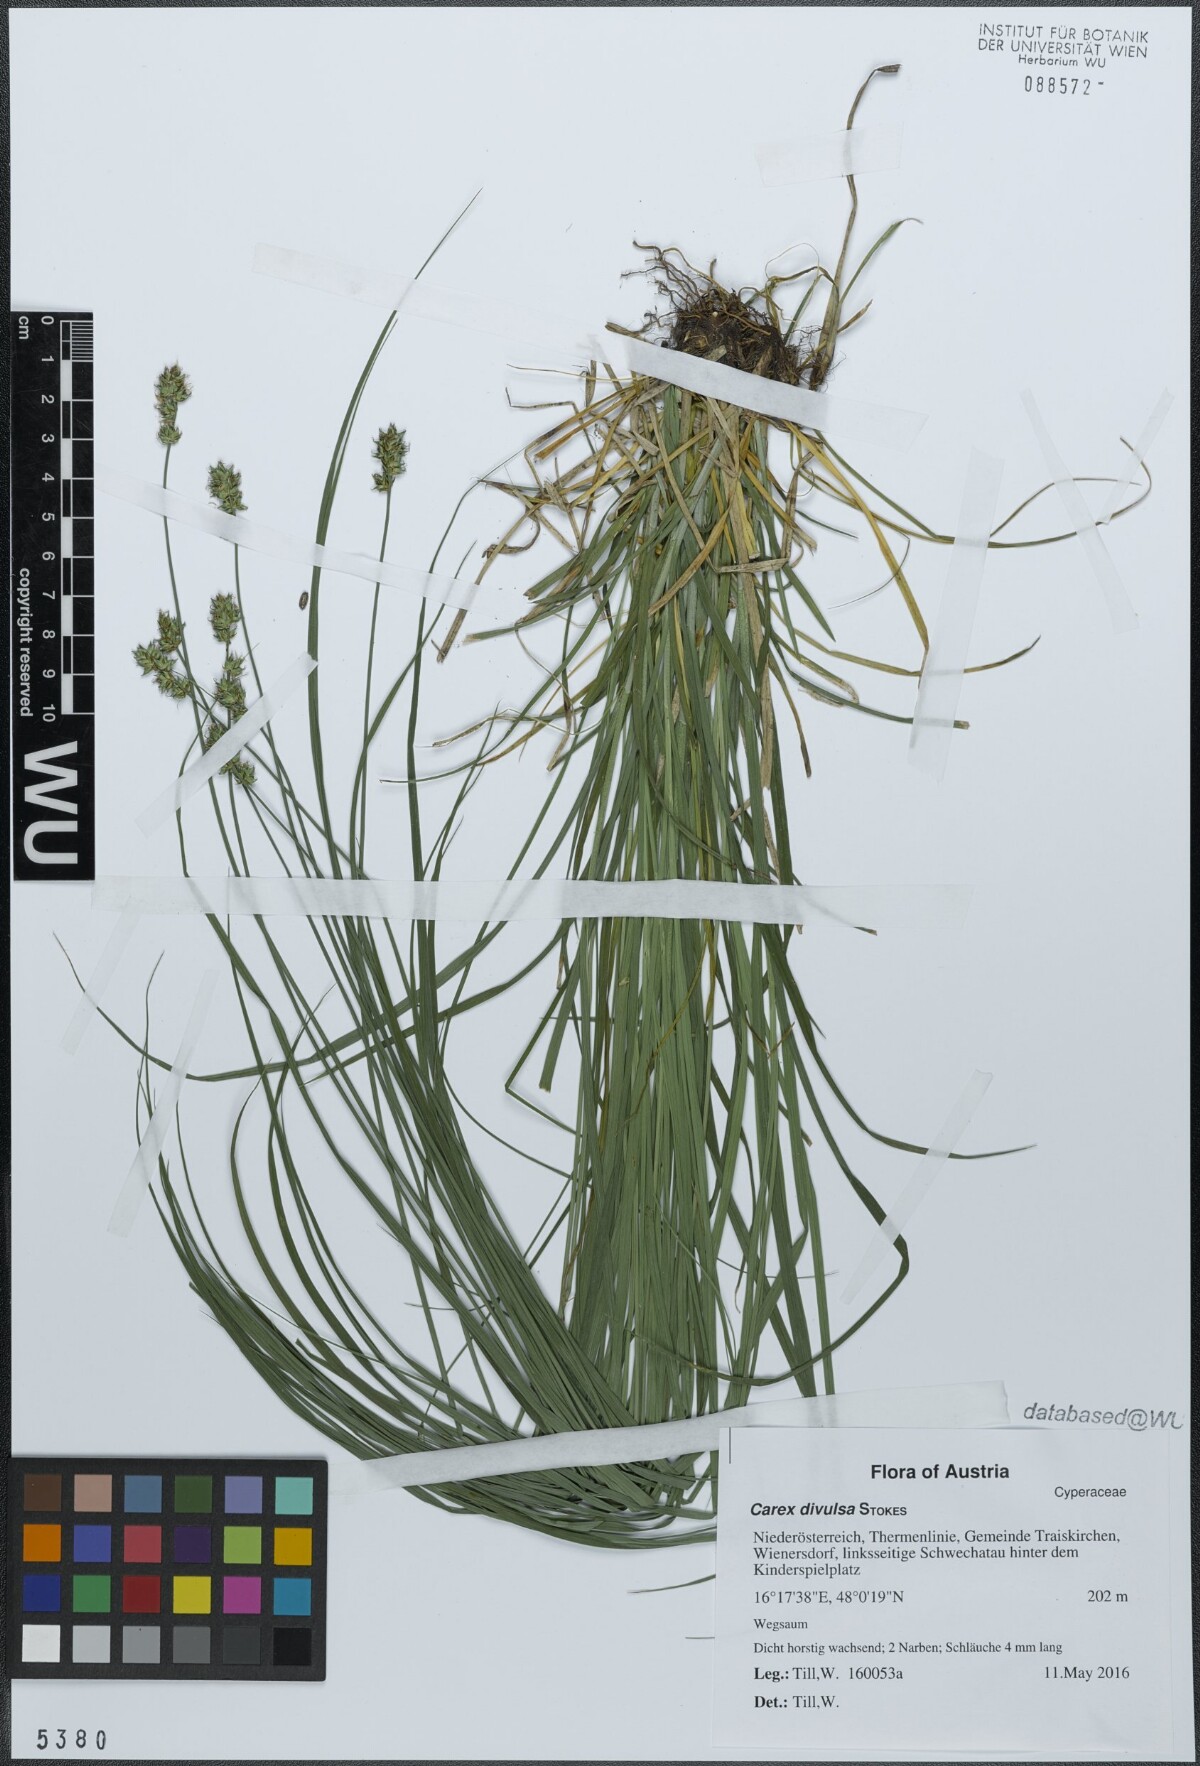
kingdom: Plantae
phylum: Tracheophyta
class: Liliopsida
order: Poales
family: Cyperaceae
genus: Carex
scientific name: Carex divulsa
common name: Grassland sedge
